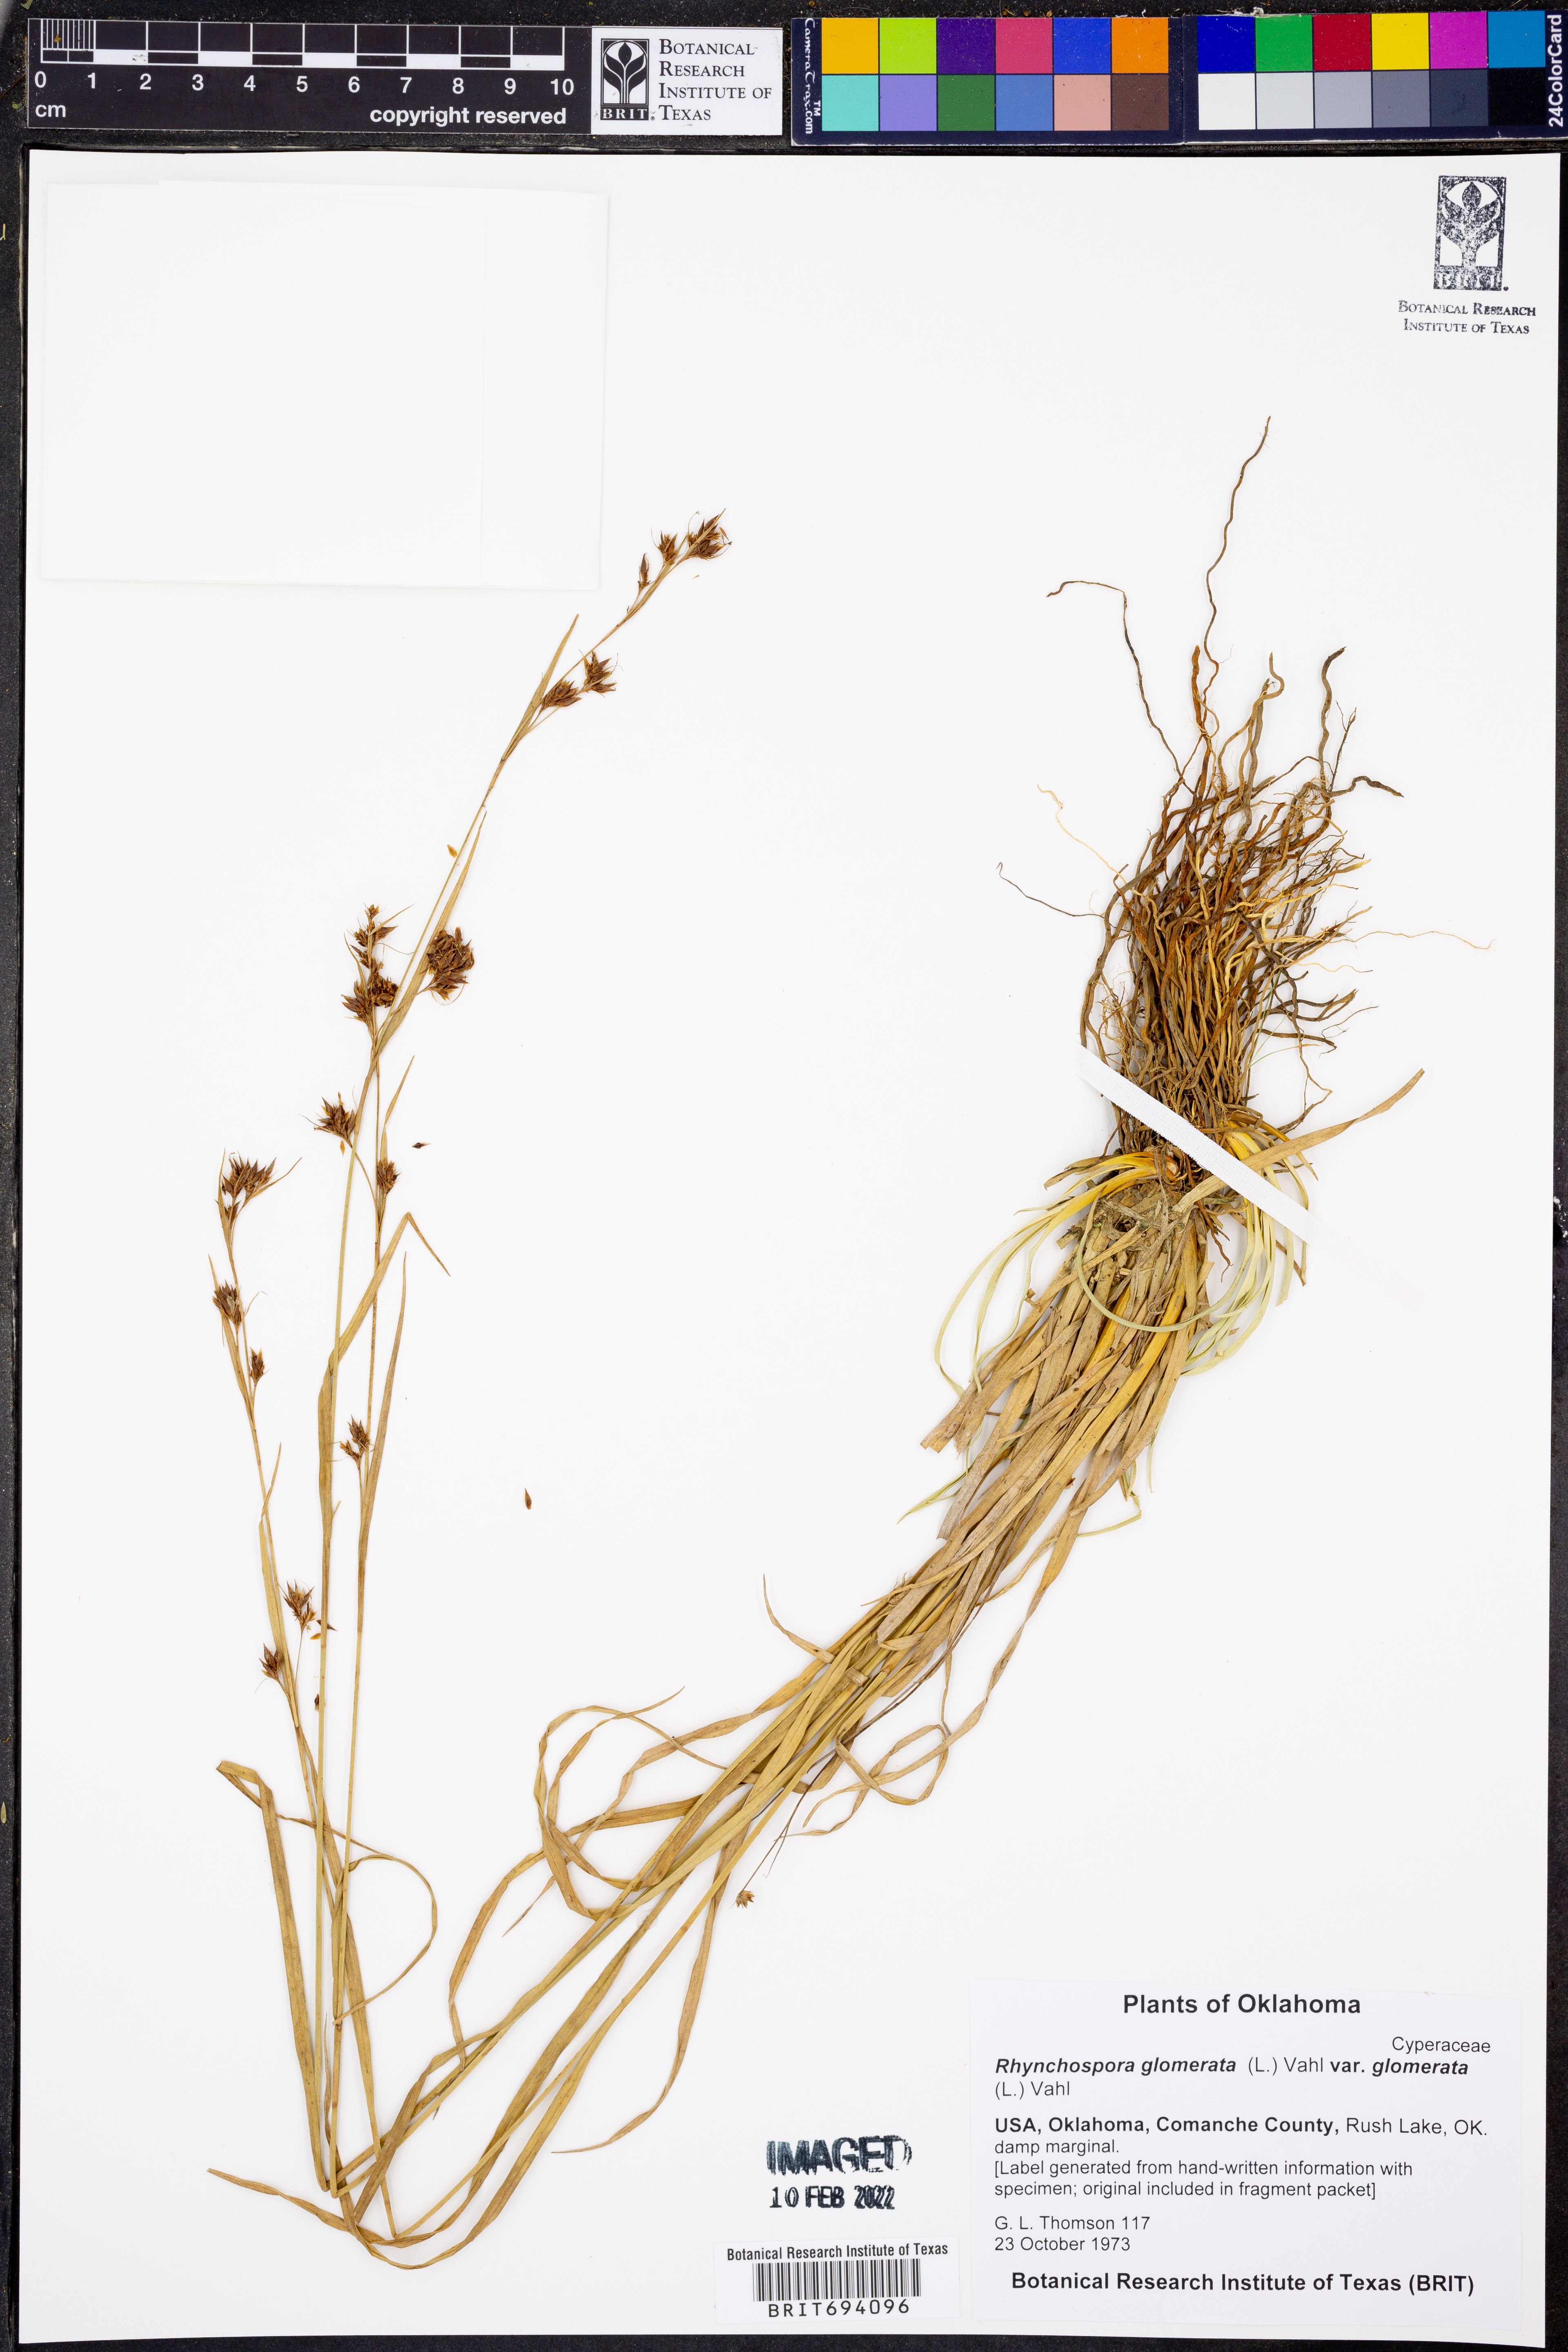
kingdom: Plantae
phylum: Tracheophyta
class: Liliopsida
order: Poales
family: Cyperaceae
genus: Rhynchospora
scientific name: Rhynchospora glomerata
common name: Cluster beak sedge
